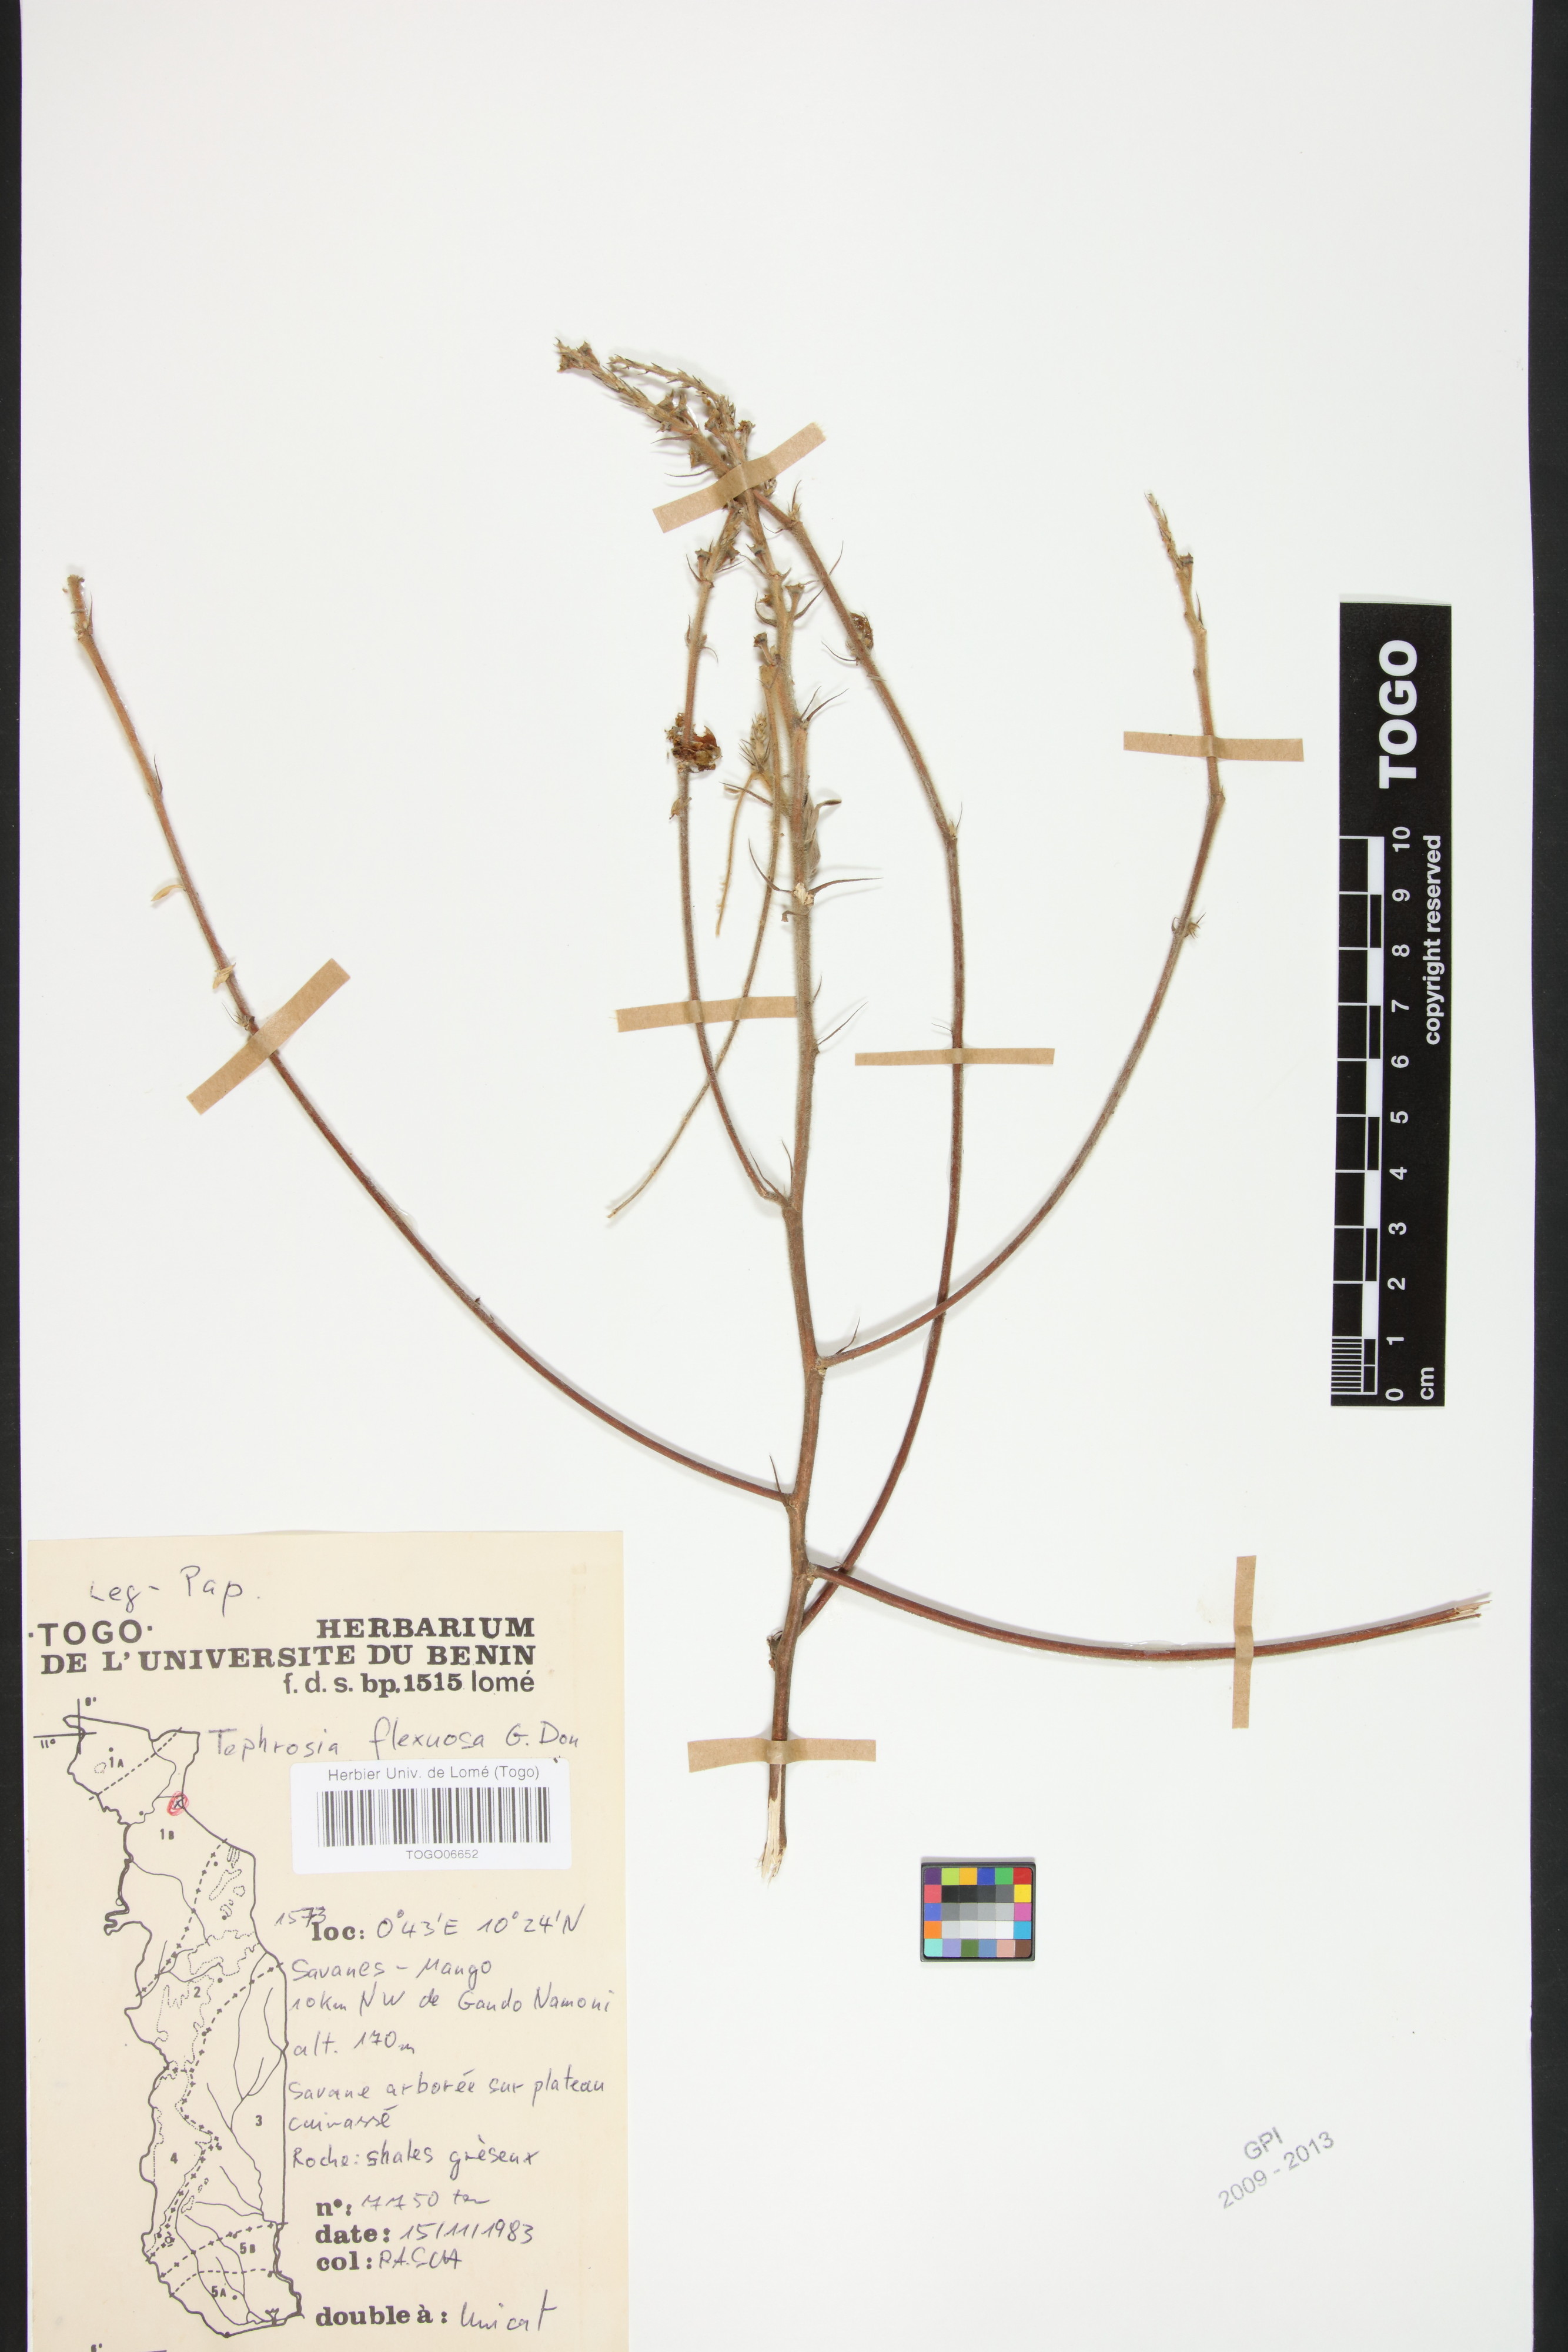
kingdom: Plantae
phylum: Tracheophyta
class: Magnoliopsida
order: Fabales
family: Fabaceae
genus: Tephrosia
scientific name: Tephrosia flexuosa
